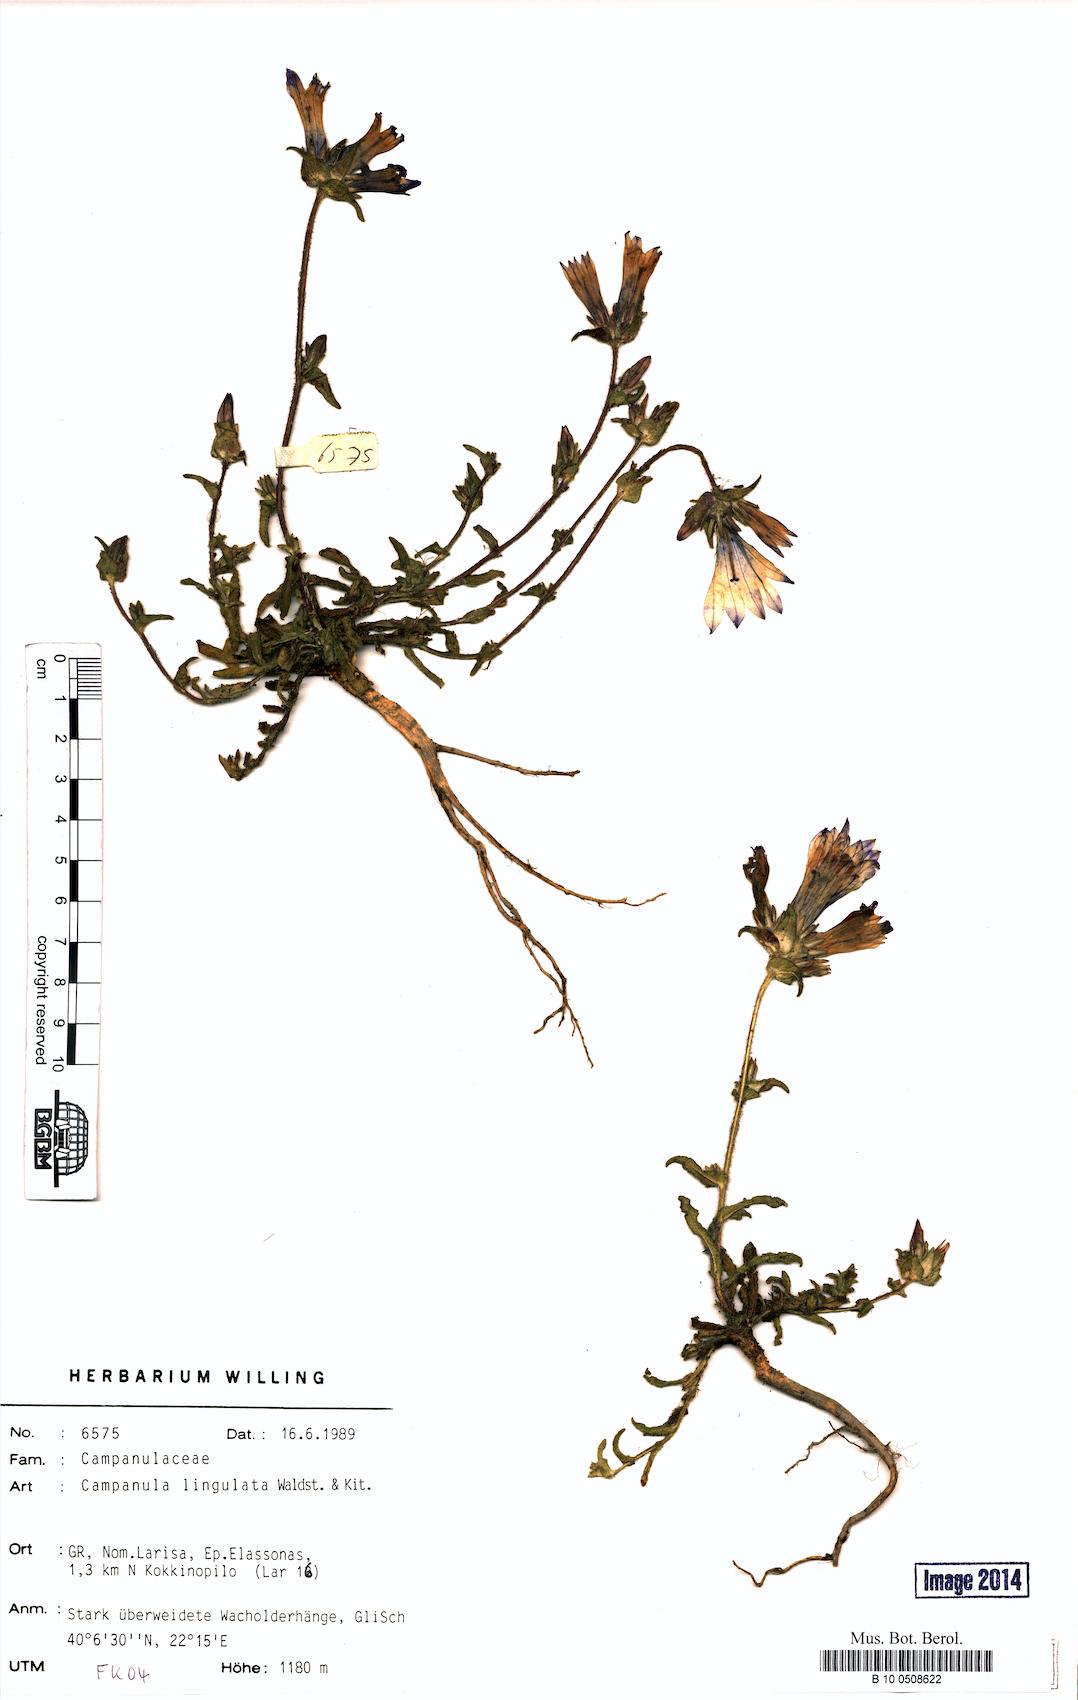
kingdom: Plantae
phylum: Tracheophyta
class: Magnoliopsida
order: Asterales
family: Campanulaceae
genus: Campanula
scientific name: Campanula lingulata
